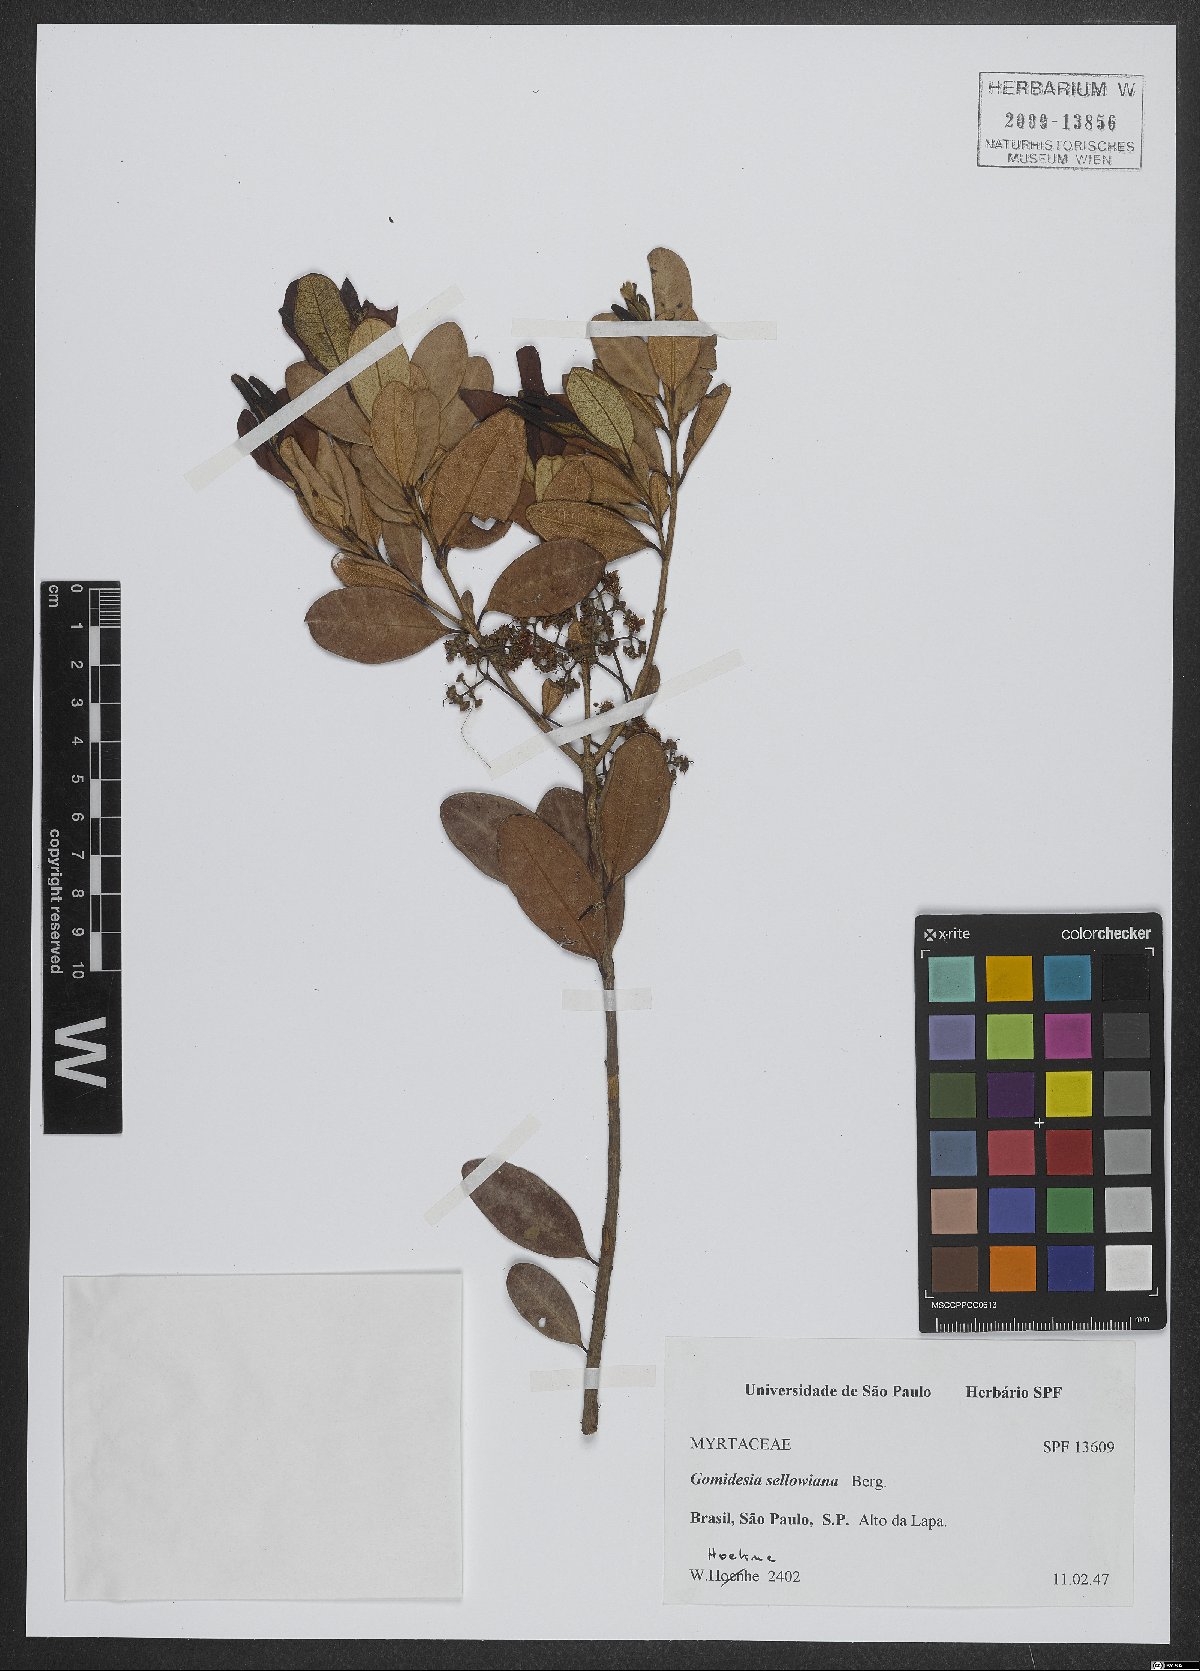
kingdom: Plantae
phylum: Tracheophyta
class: Magnoliopsida
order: Myrtales
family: Myrtaceae
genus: Myrcia
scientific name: Myrcia hartwegiana
